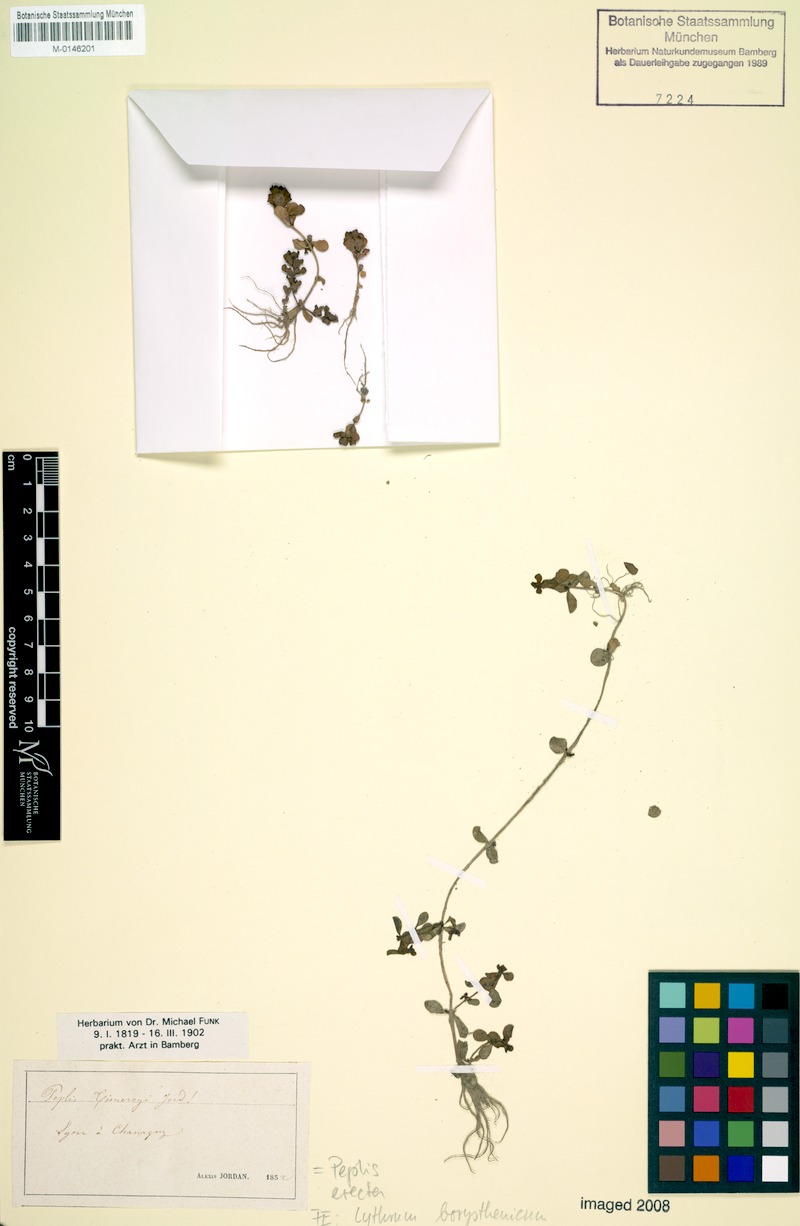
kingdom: Plantae
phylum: Tracheophyta
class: Magnoliopsida
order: Myrtales
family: Lythraceae
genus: Lythrum
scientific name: Lythrum borysthenicum
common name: Loosestrife
